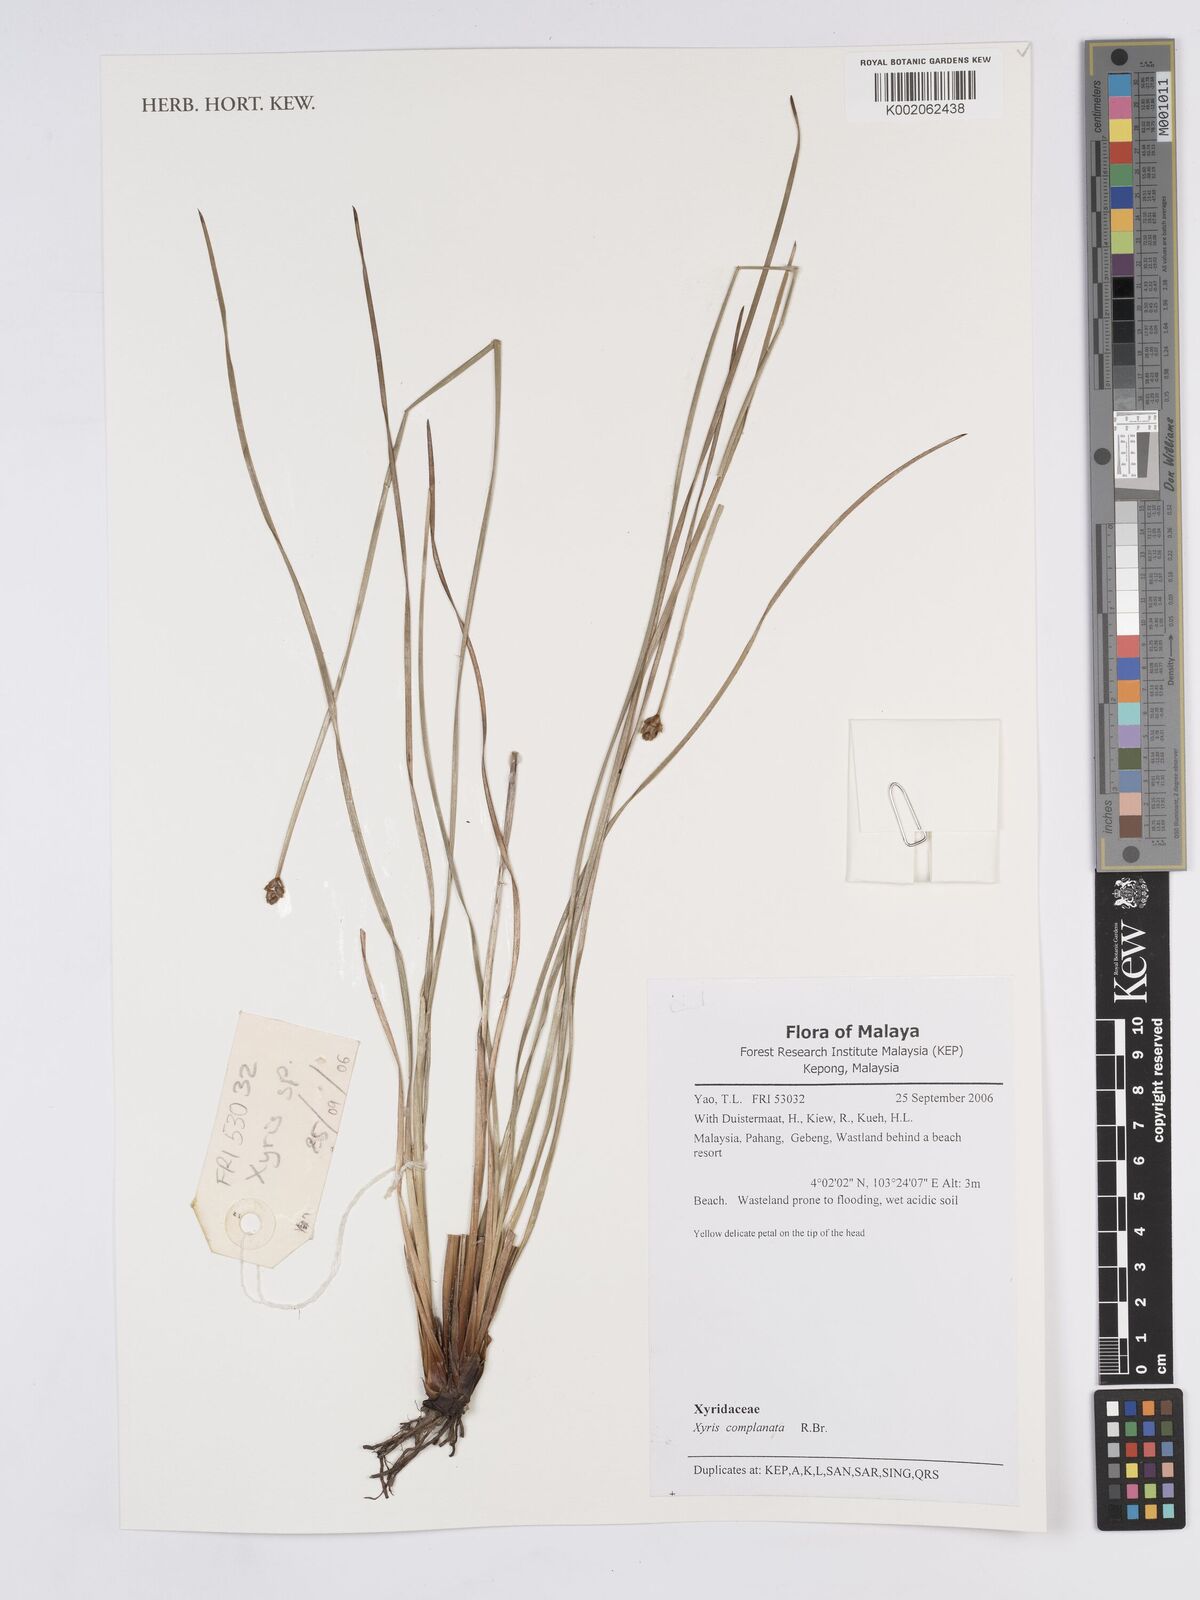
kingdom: Plantae
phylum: Tracheophyta
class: Liliopsida
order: Poales
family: Xyridaceae
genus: Xyris
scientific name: Xyris complanata
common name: Hawai'i yelloweyed grass
